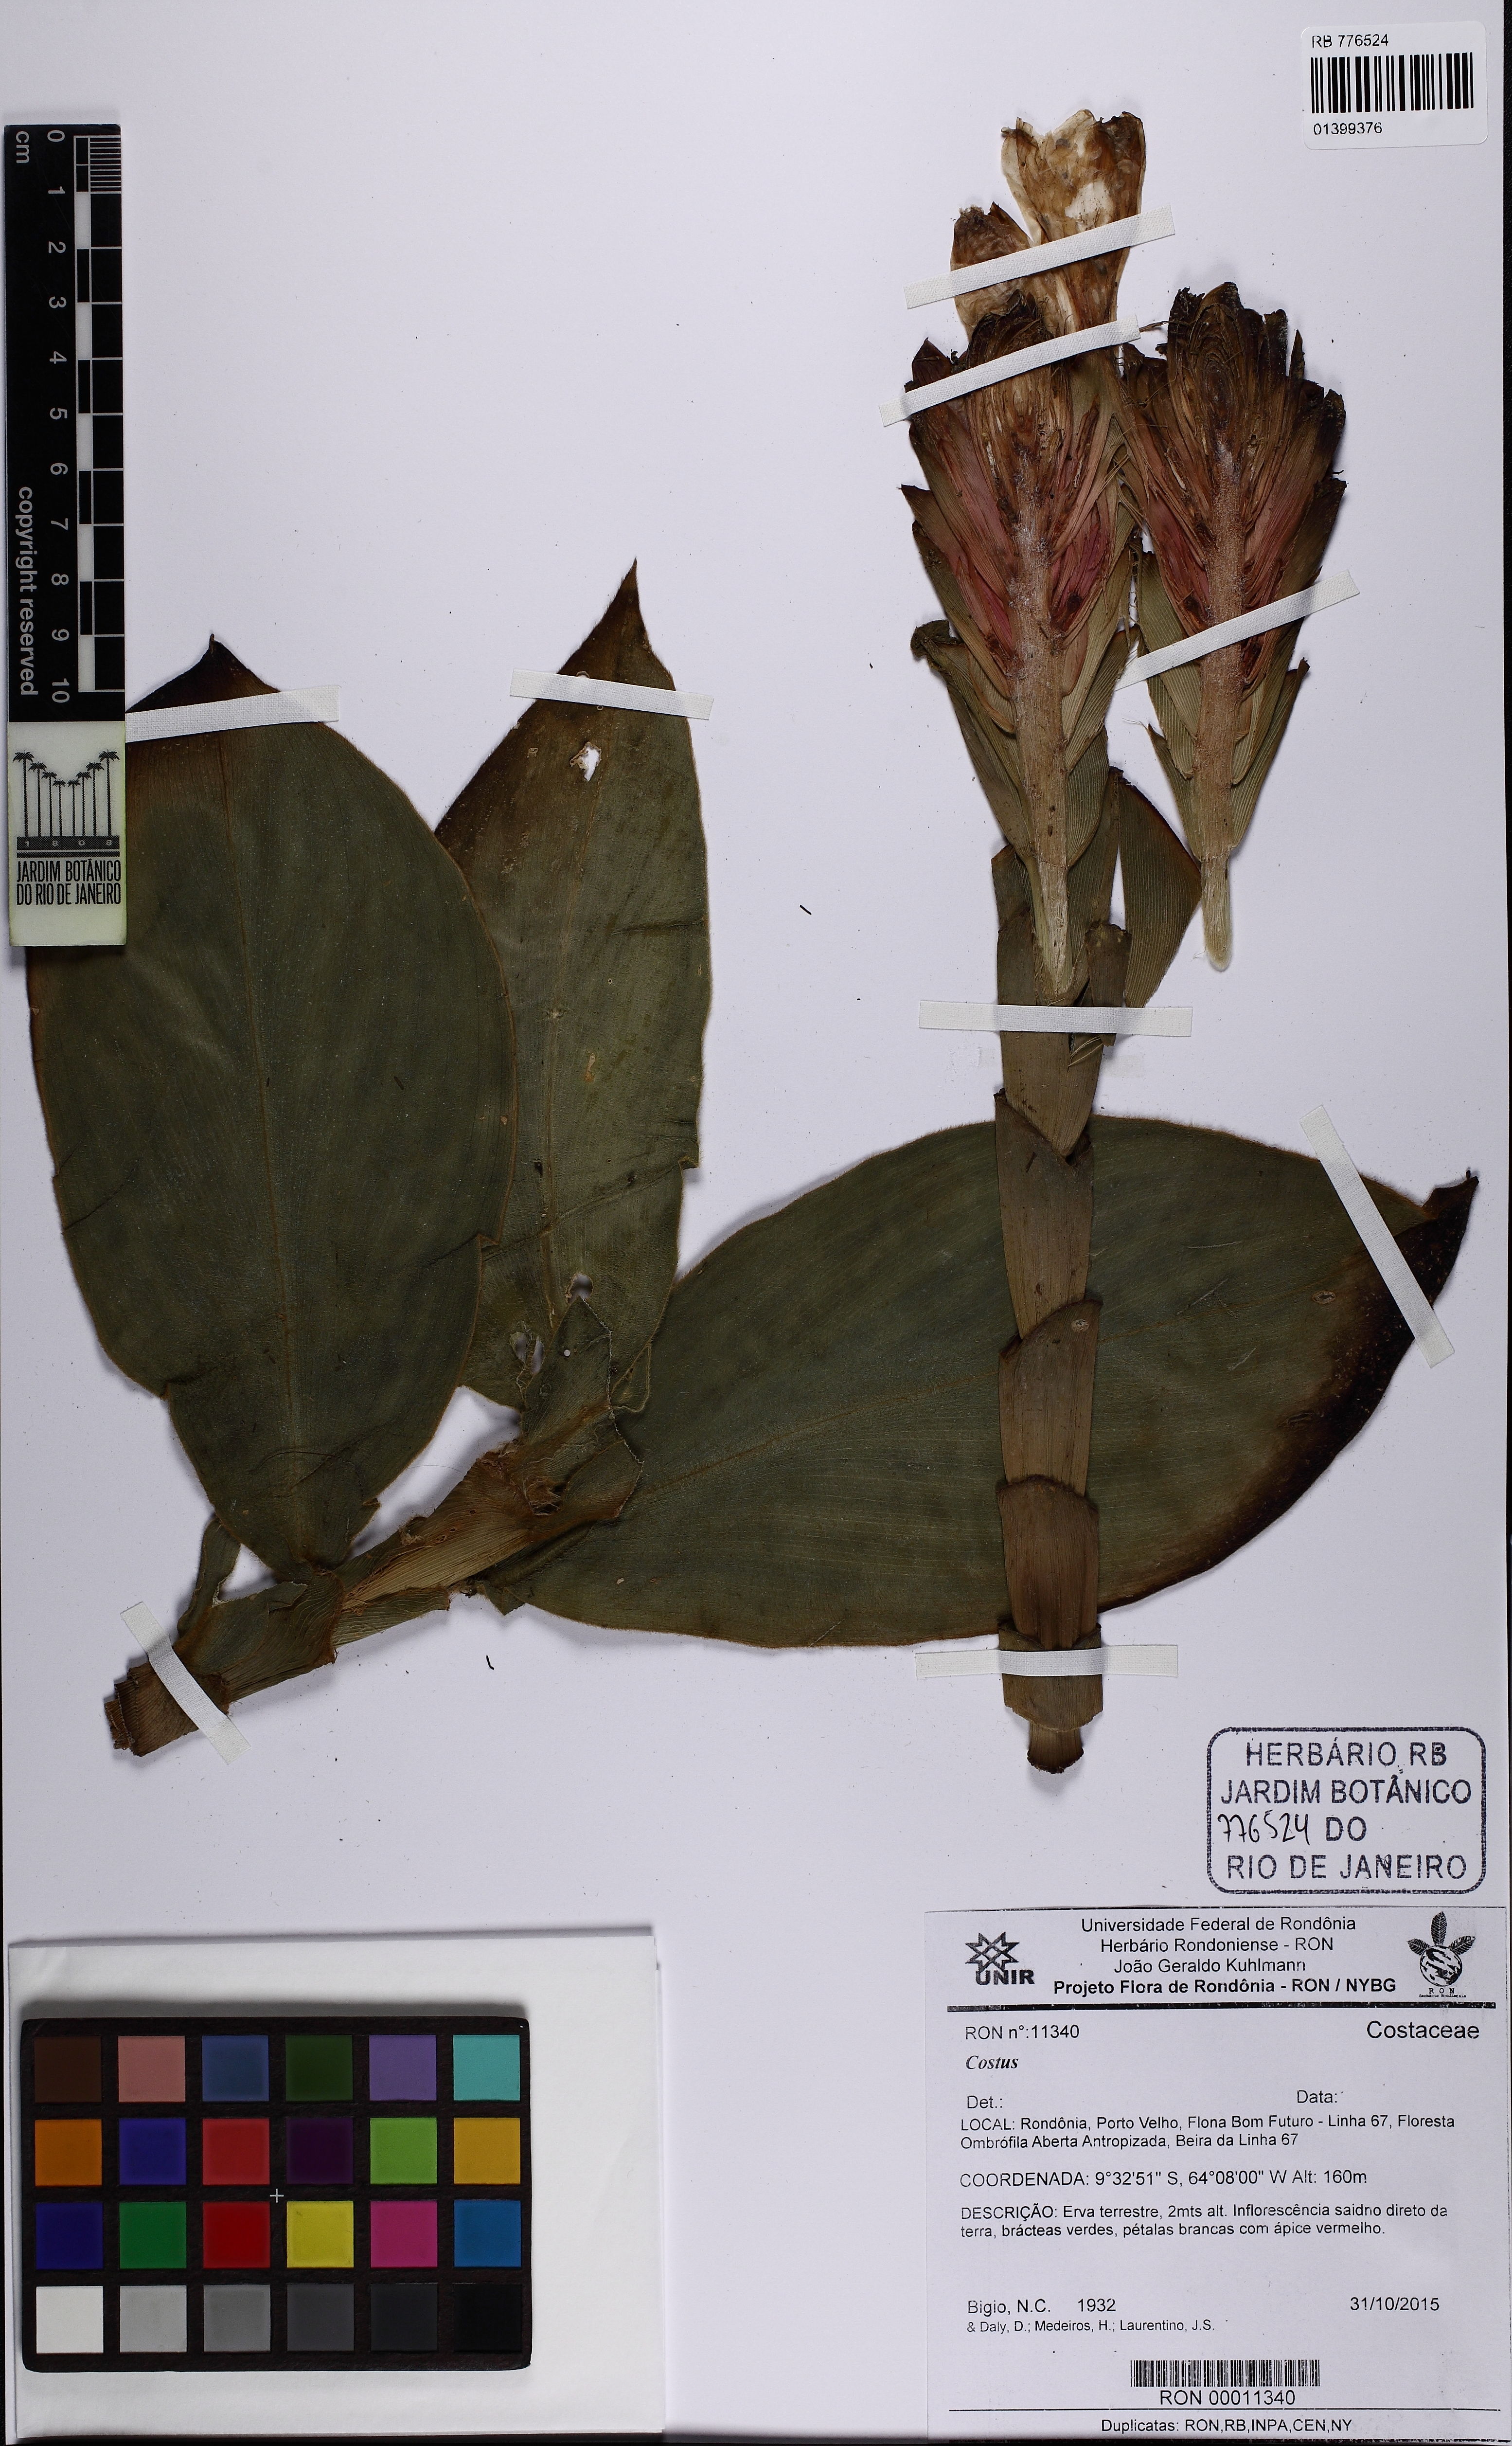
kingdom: Plantae
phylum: Tracheophyta
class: Liliopsida
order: Zingiberales
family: Costaceae
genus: Costus
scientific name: Costus
